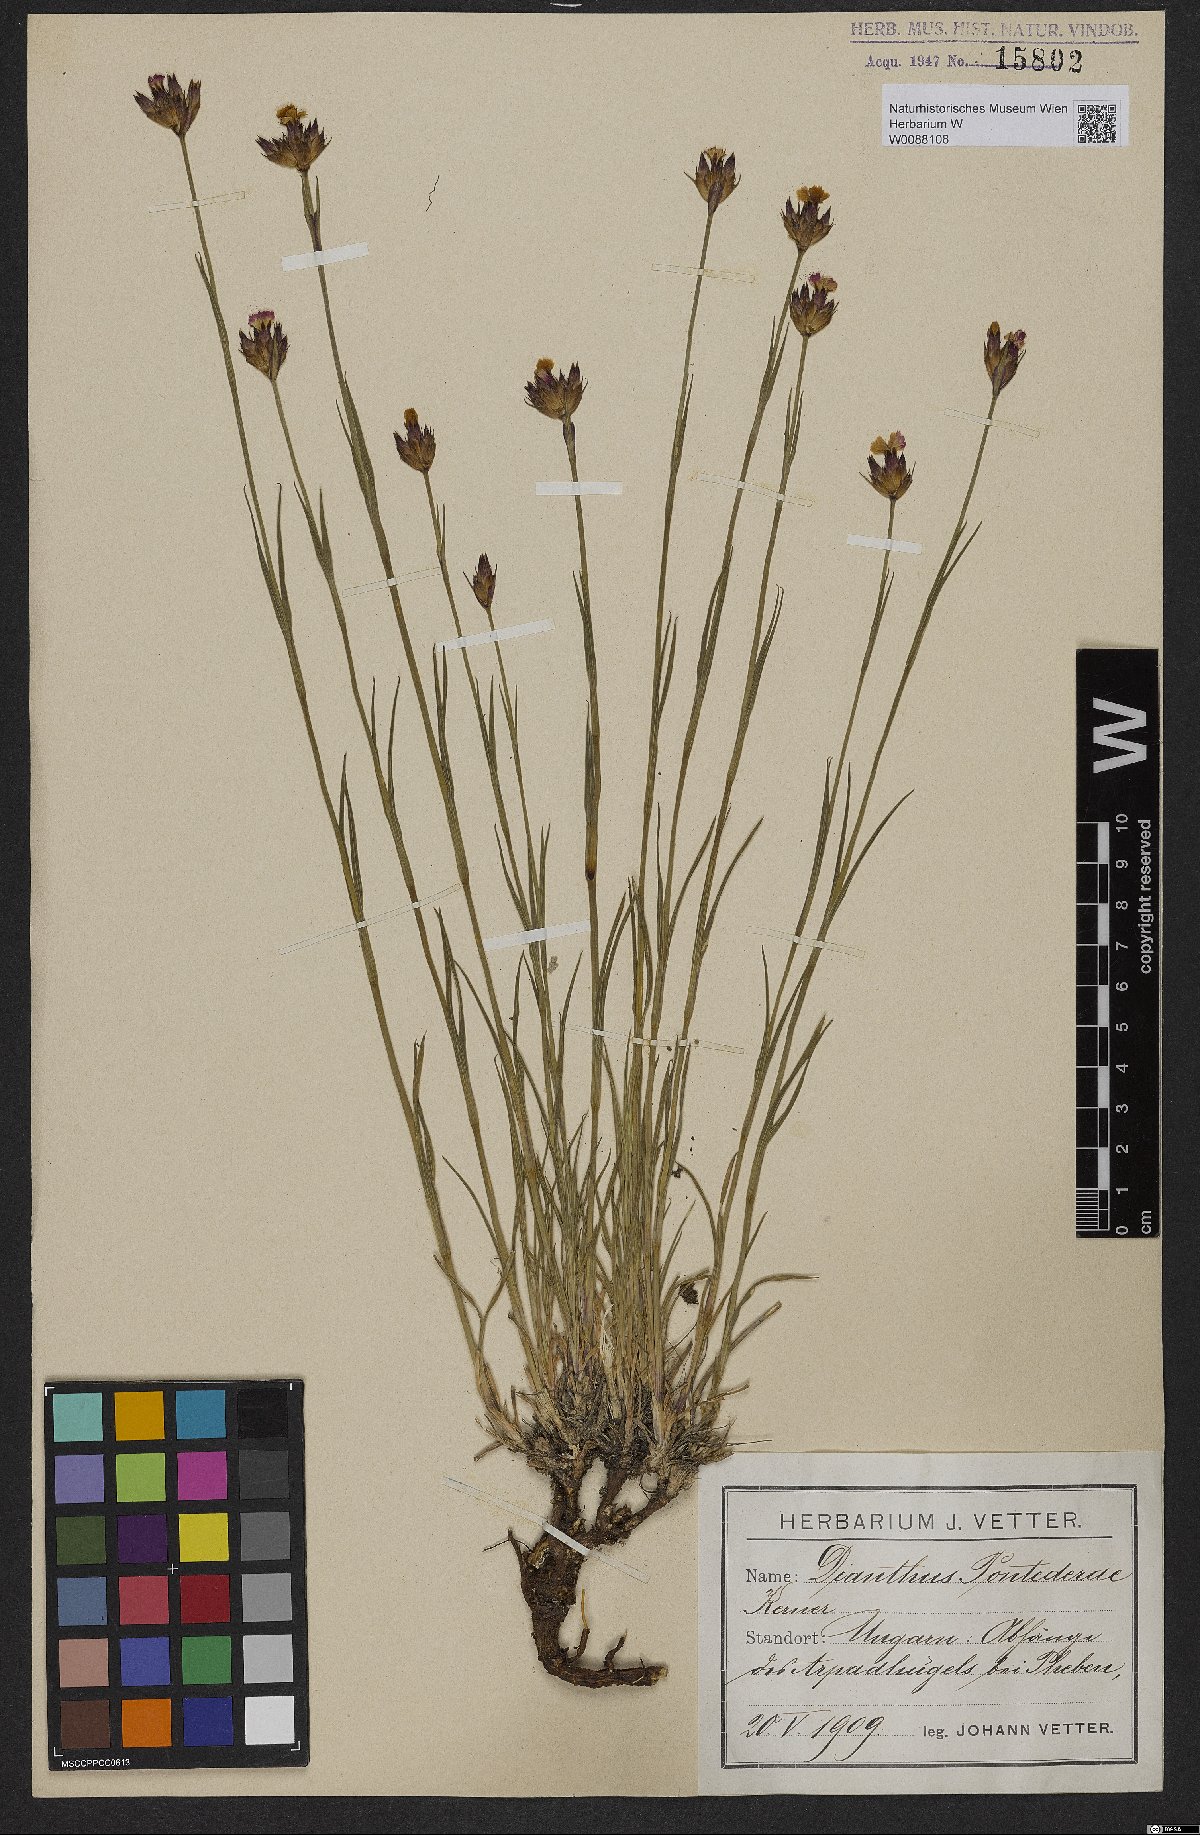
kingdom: Plantae
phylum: Tracheophyta
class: Magnoliopsida
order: Caryophyllales
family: Caryophyllaceae
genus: Dianthus
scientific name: Dianthus pontederae
